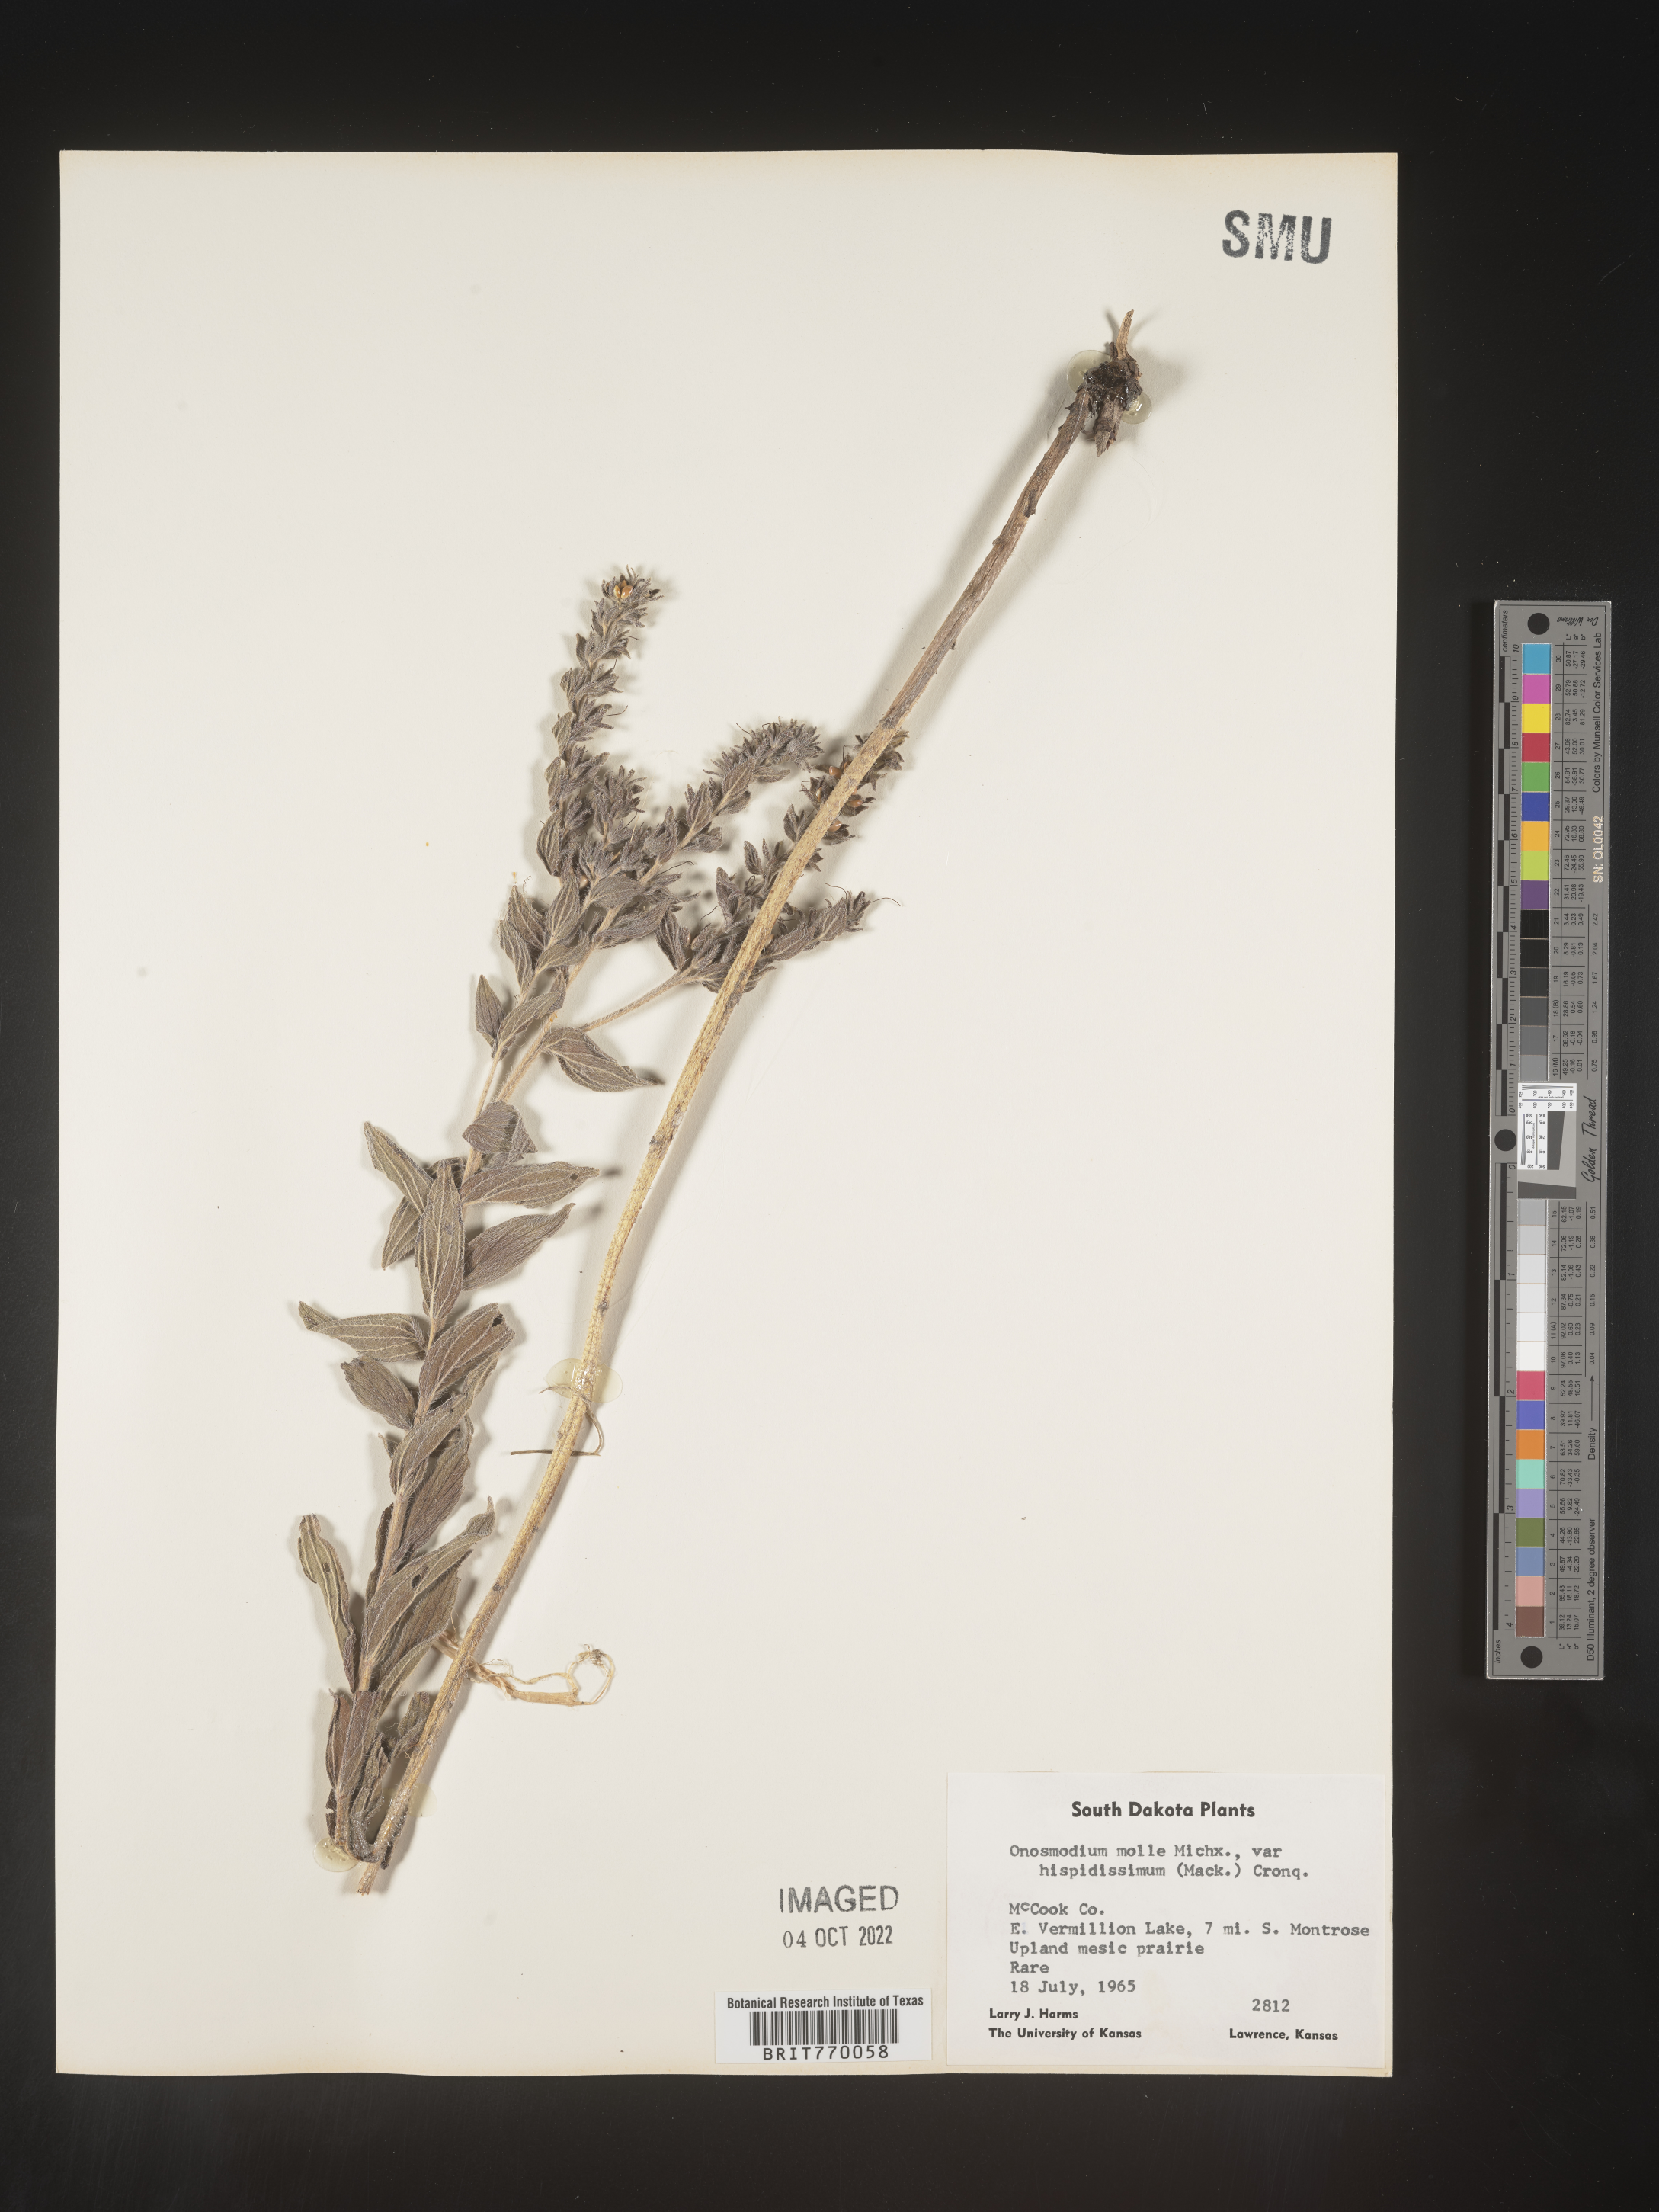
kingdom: Plantae
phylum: Tracheophyta
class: Magnoliopsida
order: Boraginales
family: Boraginaceae
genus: Lithospermum
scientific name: Lithospermum parviflorum
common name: Hairy false gromwell
